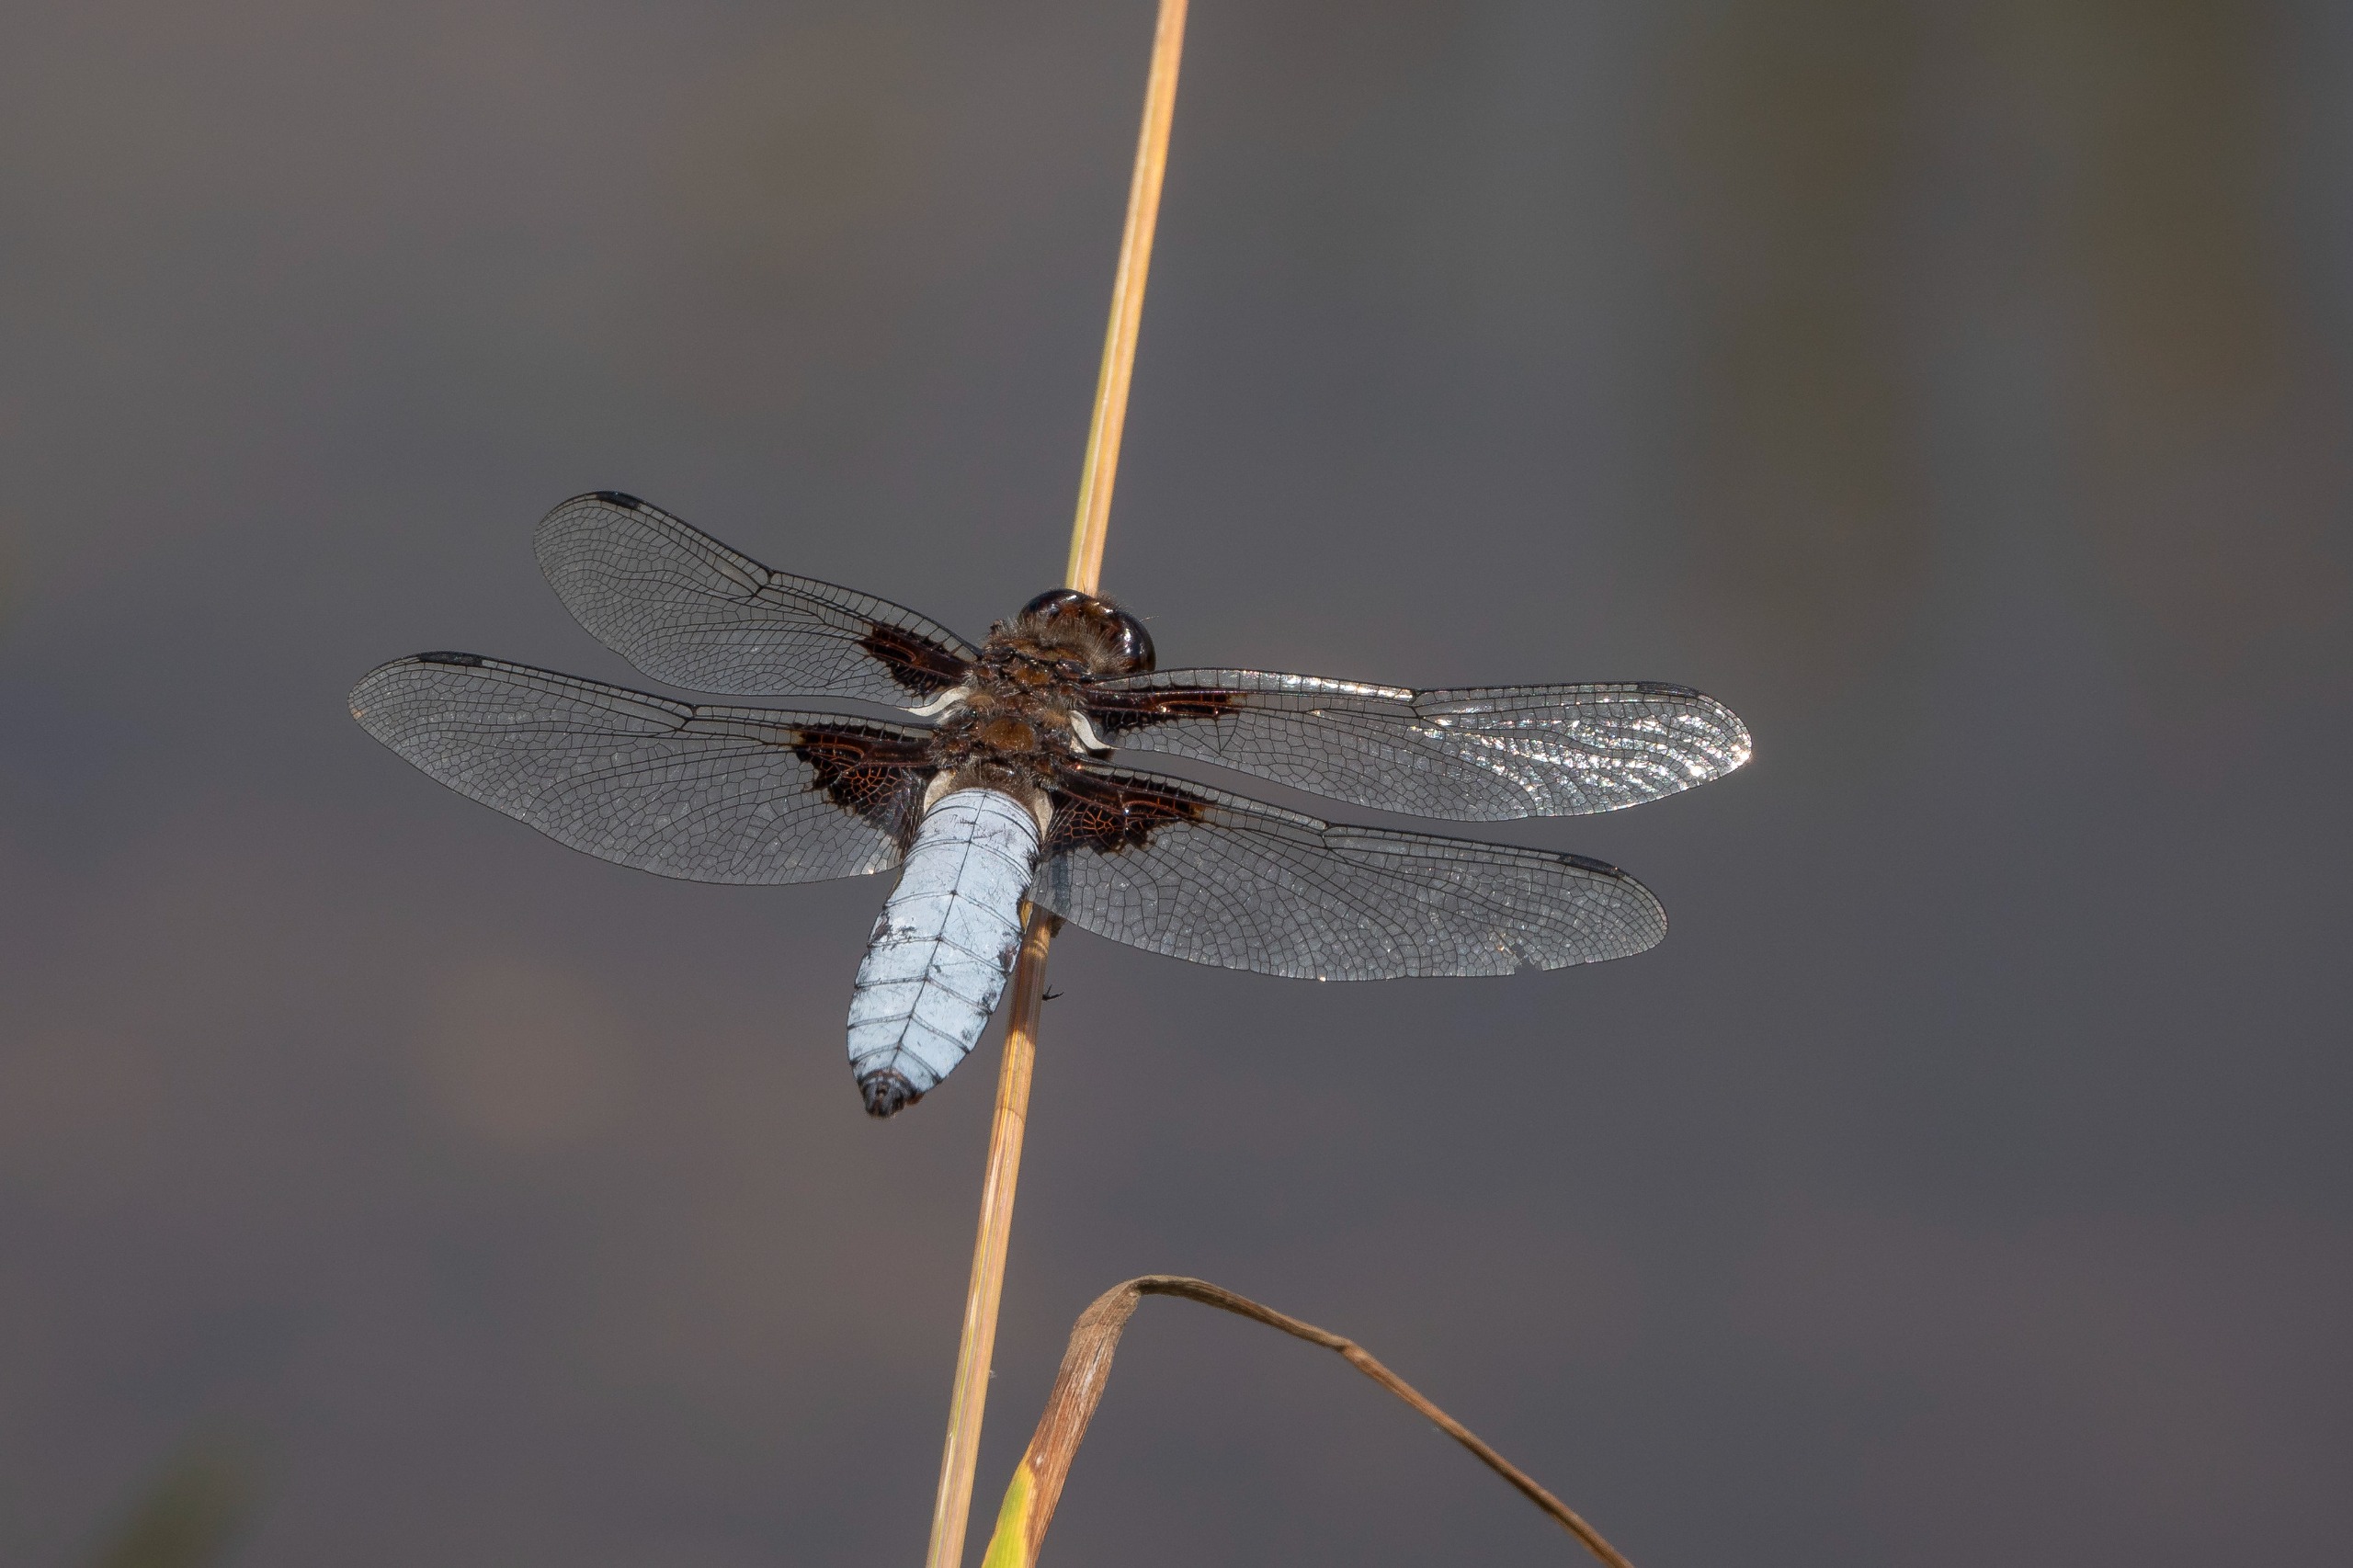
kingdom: Animalia
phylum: Arthropoda
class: Insecta
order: Odonata
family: Libellulidae
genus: Libellula
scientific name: Libellula depressa
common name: Blå libel
